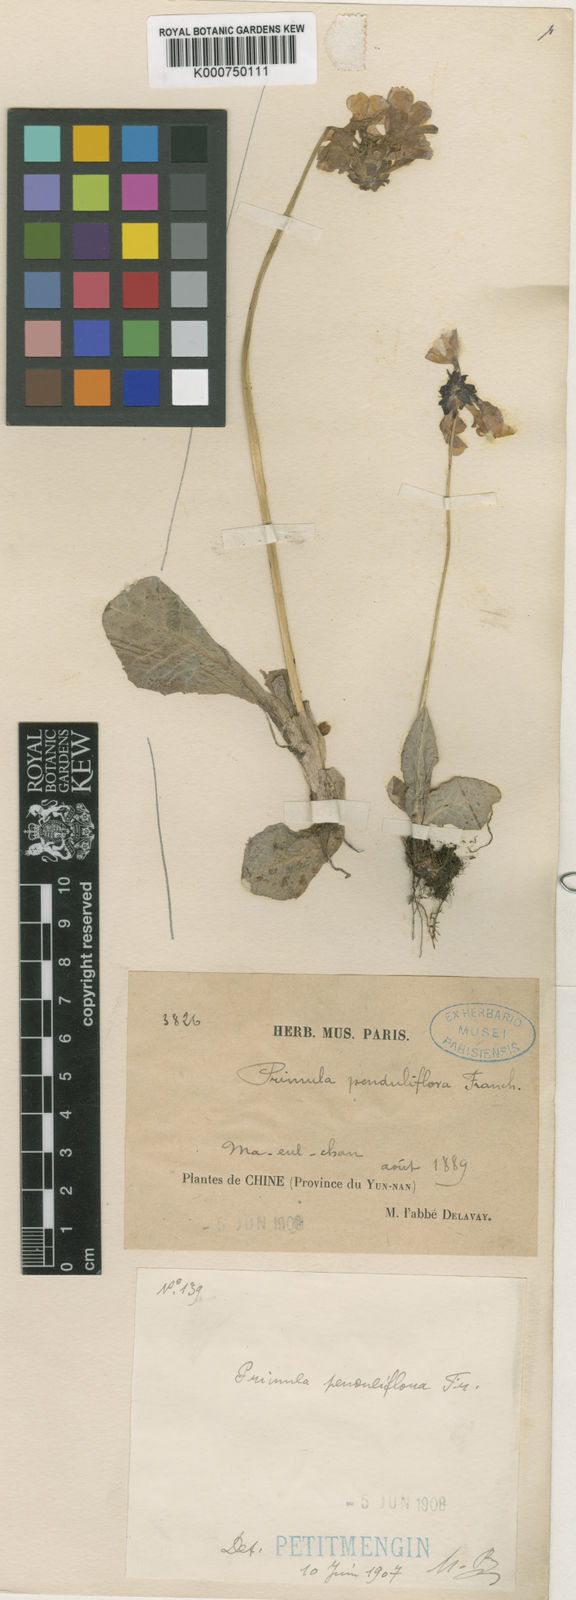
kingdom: Plantae
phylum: Tracheophyta
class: Magnoliopsida
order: Ericales
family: Primulaceae
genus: Primula
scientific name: Primula nutans
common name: Siberian primrose
